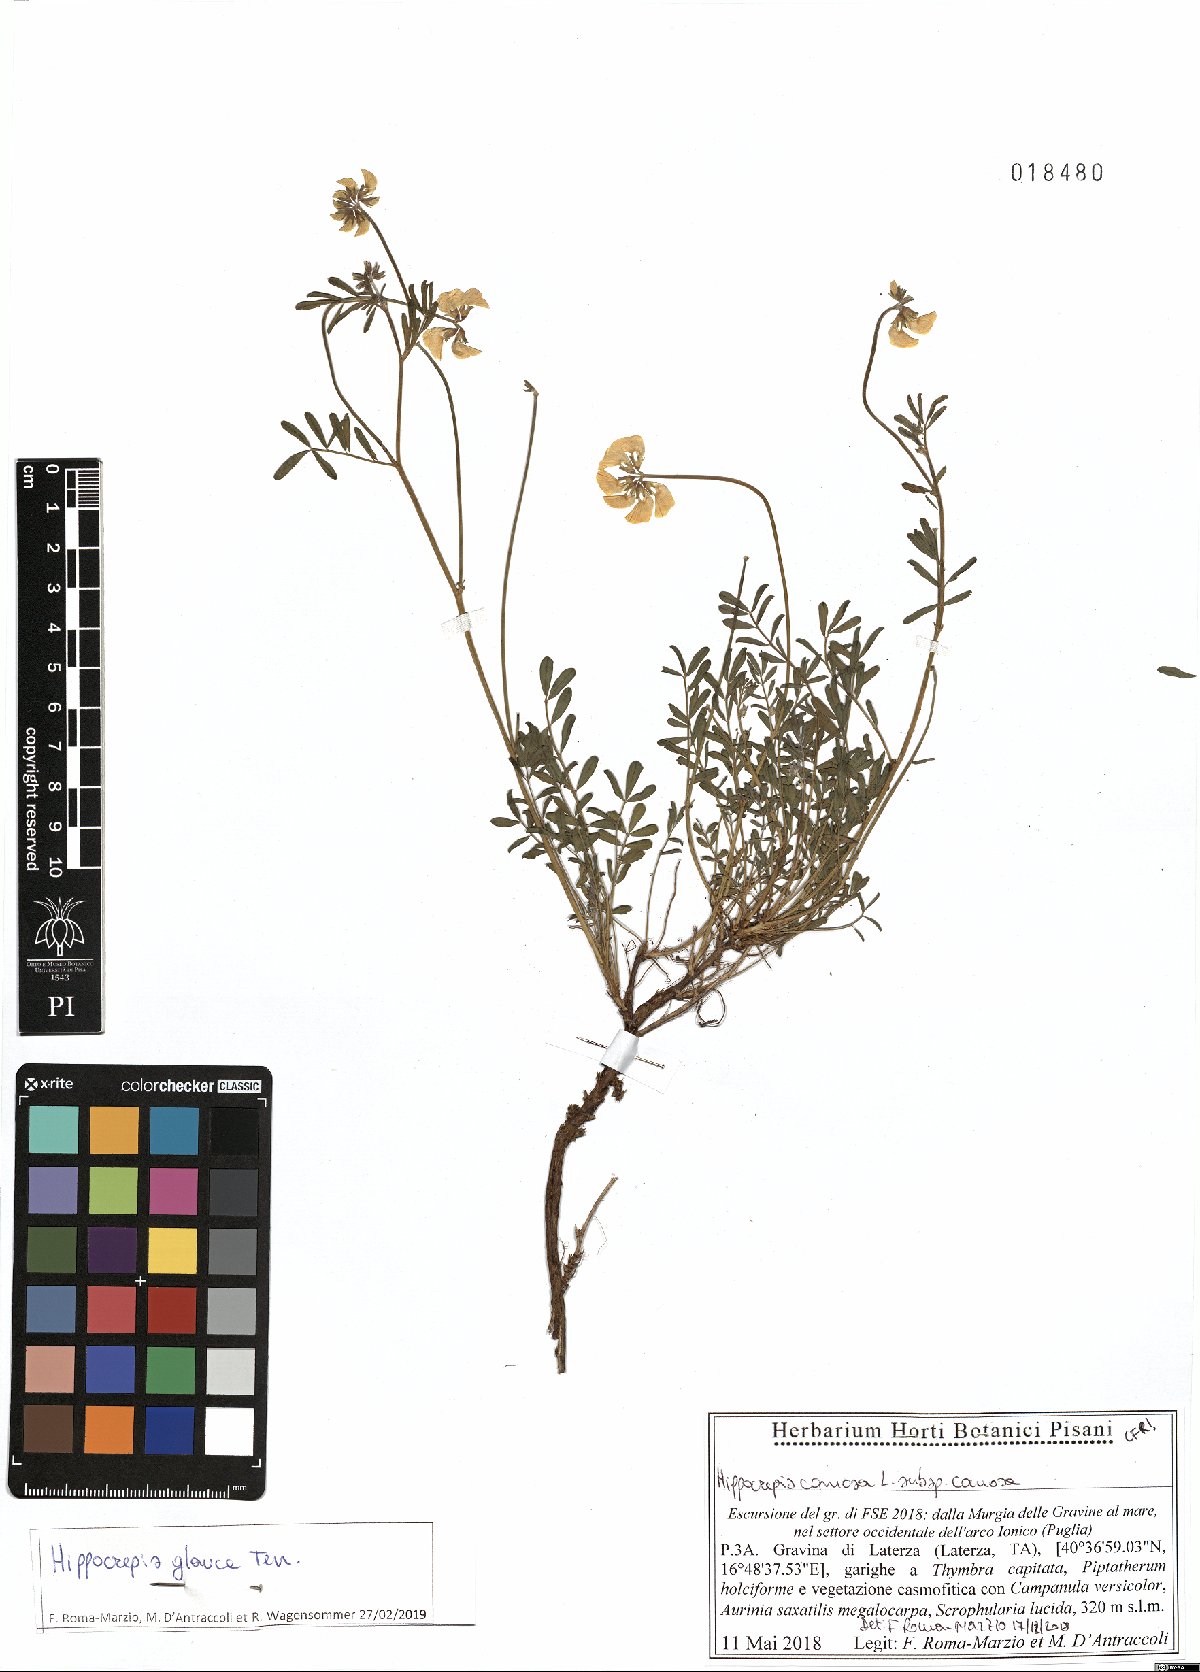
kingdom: Plantae
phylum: Tracheophyta
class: Magnoliopsida
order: Fabales
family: Fabaceae
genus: Hippocrepis
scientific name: Hippocrepis glauca
